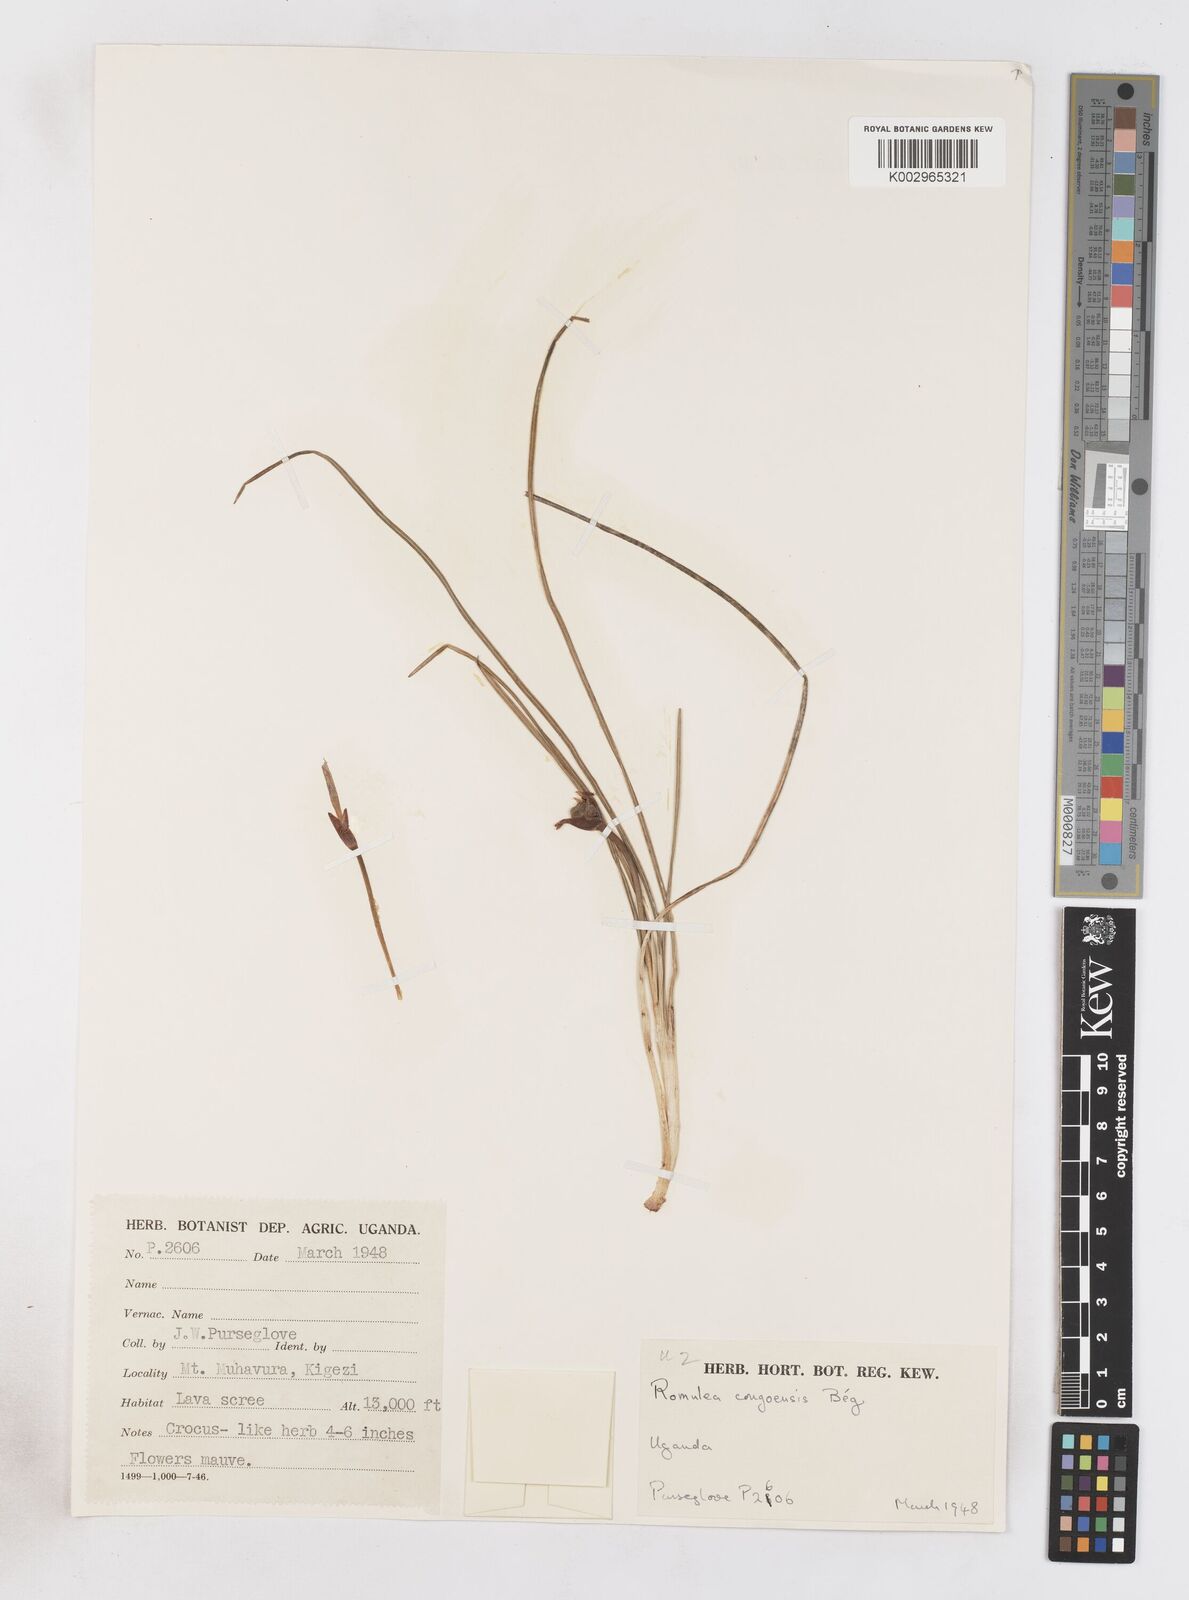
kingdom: Plantae
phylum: Tracheophyta
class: Liliopsida
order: Asparagales
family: Iridaceae
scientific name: Iridaceae
